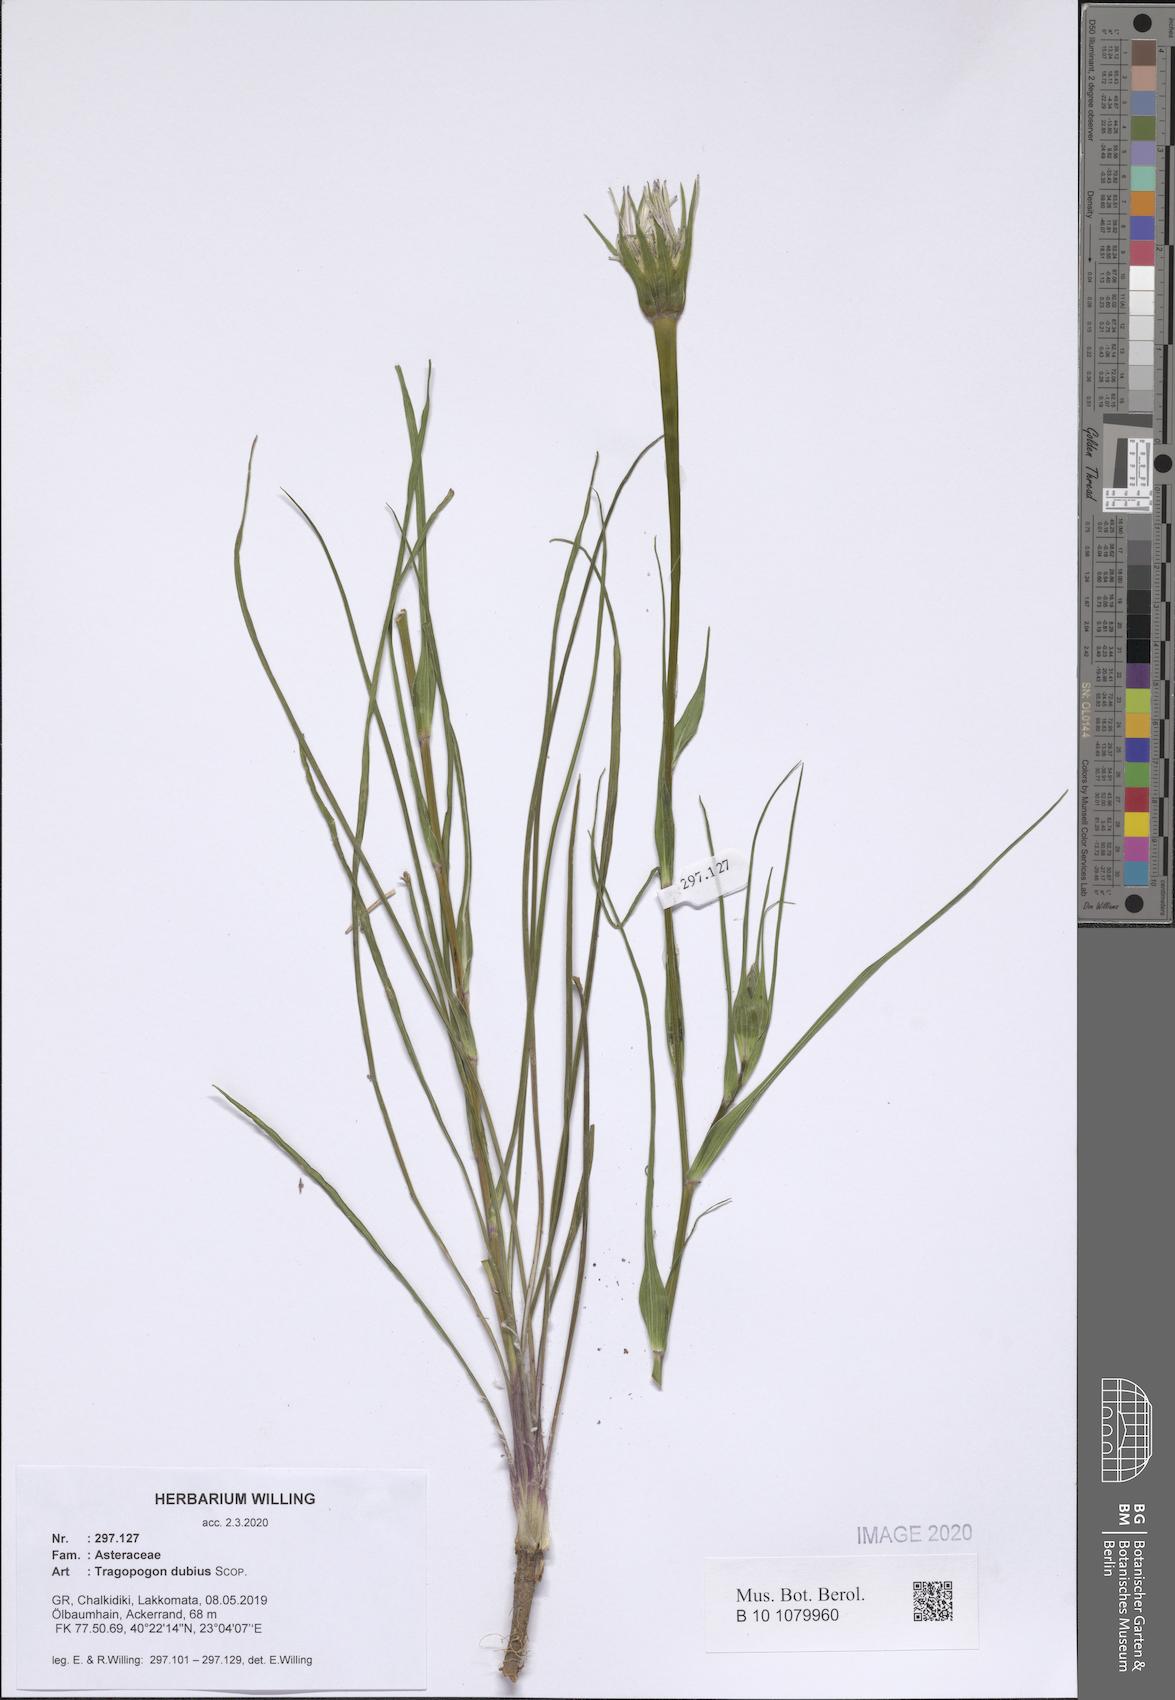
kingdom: Plantae
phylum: Tracheophyta
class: Magnoliopsida
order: Asterales
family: Asteraceae
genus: Tragopogon
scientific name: Tragopogon dubius
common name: Yellow salsify
